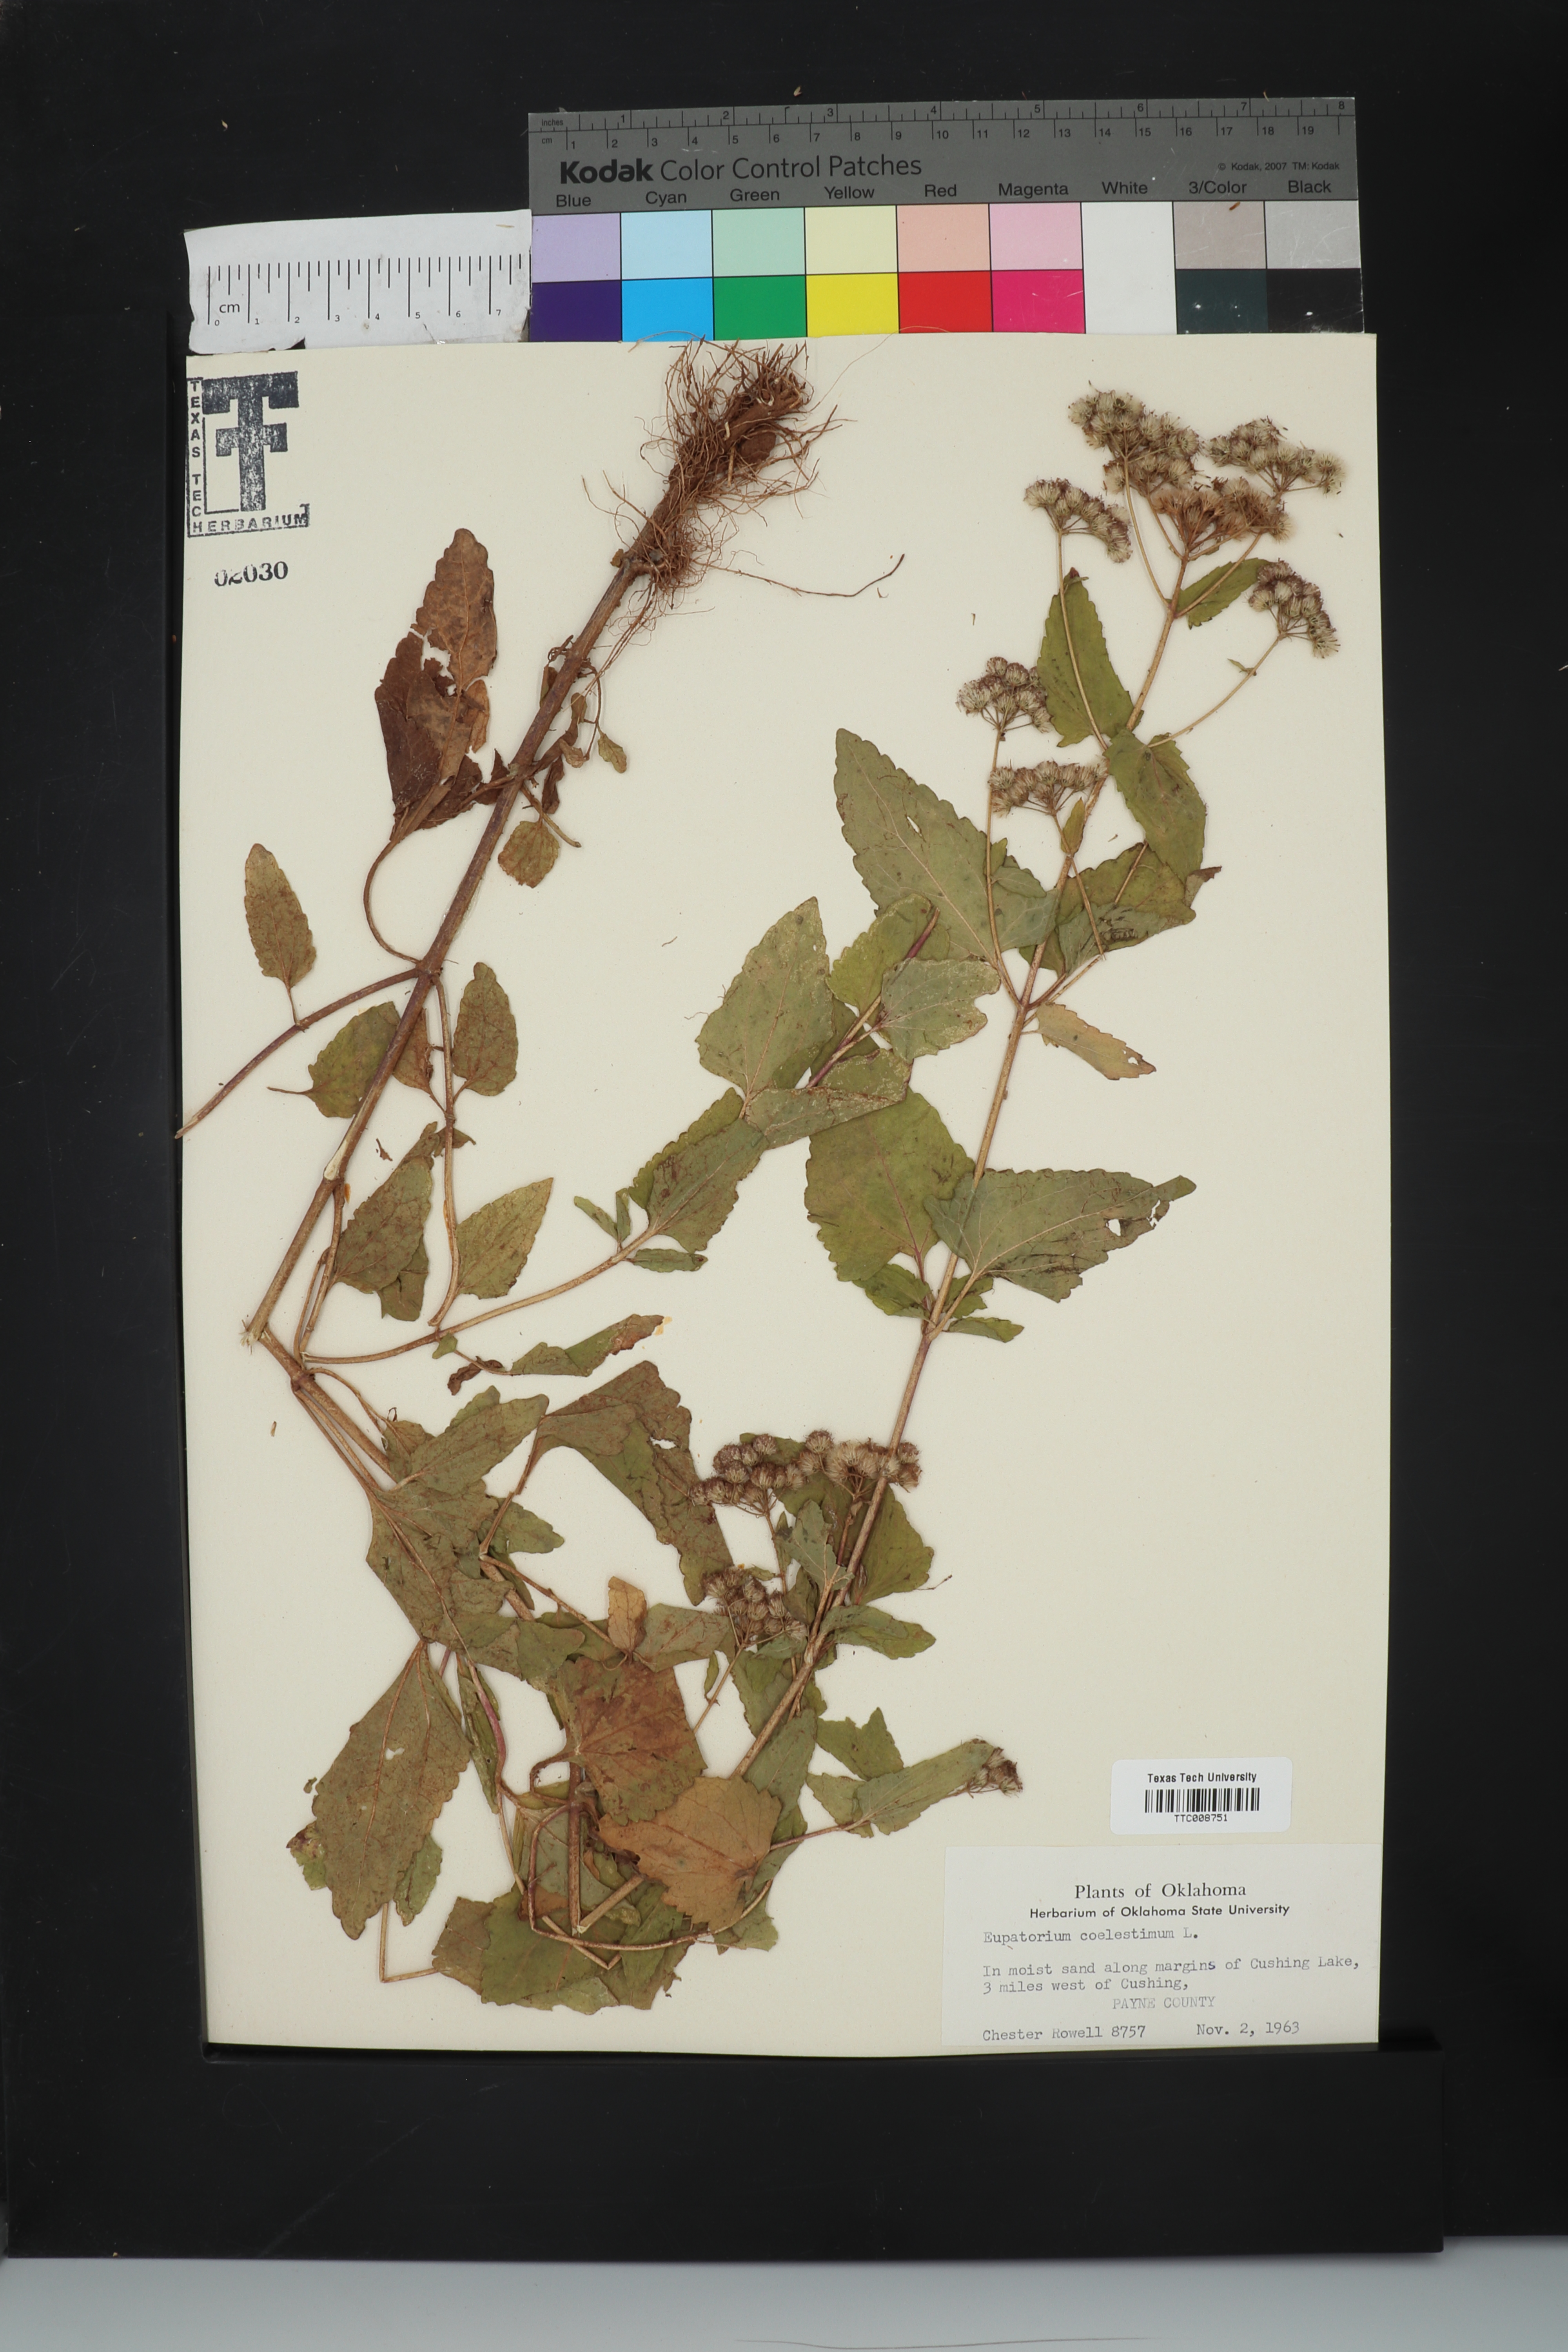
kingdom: Plantae
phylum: Tracheophyta
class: Magnoliopsida
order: Asterales
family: Asteraceae
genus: Conoclinium
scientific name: Conoclinium coelestinum
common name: Blue mistflower
